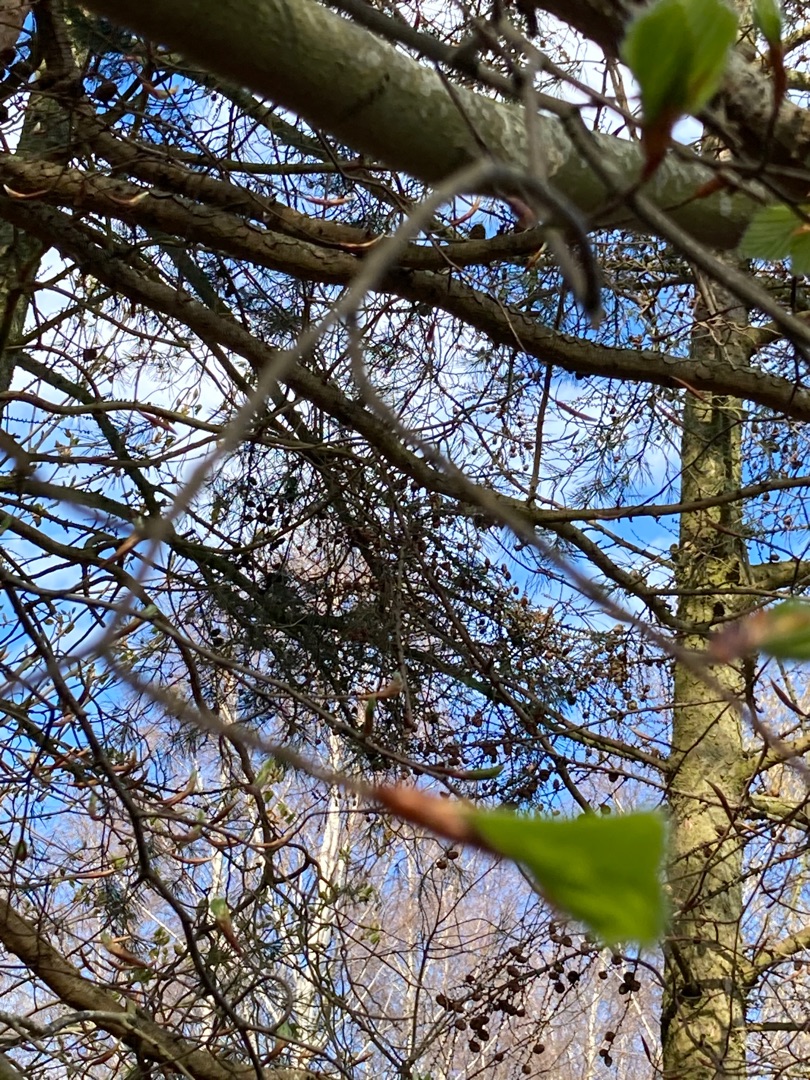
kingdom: Plantae
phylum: Tracheophyta
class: Magnoliopsida
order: Fagales
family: Fagaceae
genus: Fagus
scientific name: Fagus sylvatica
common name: Bøg
